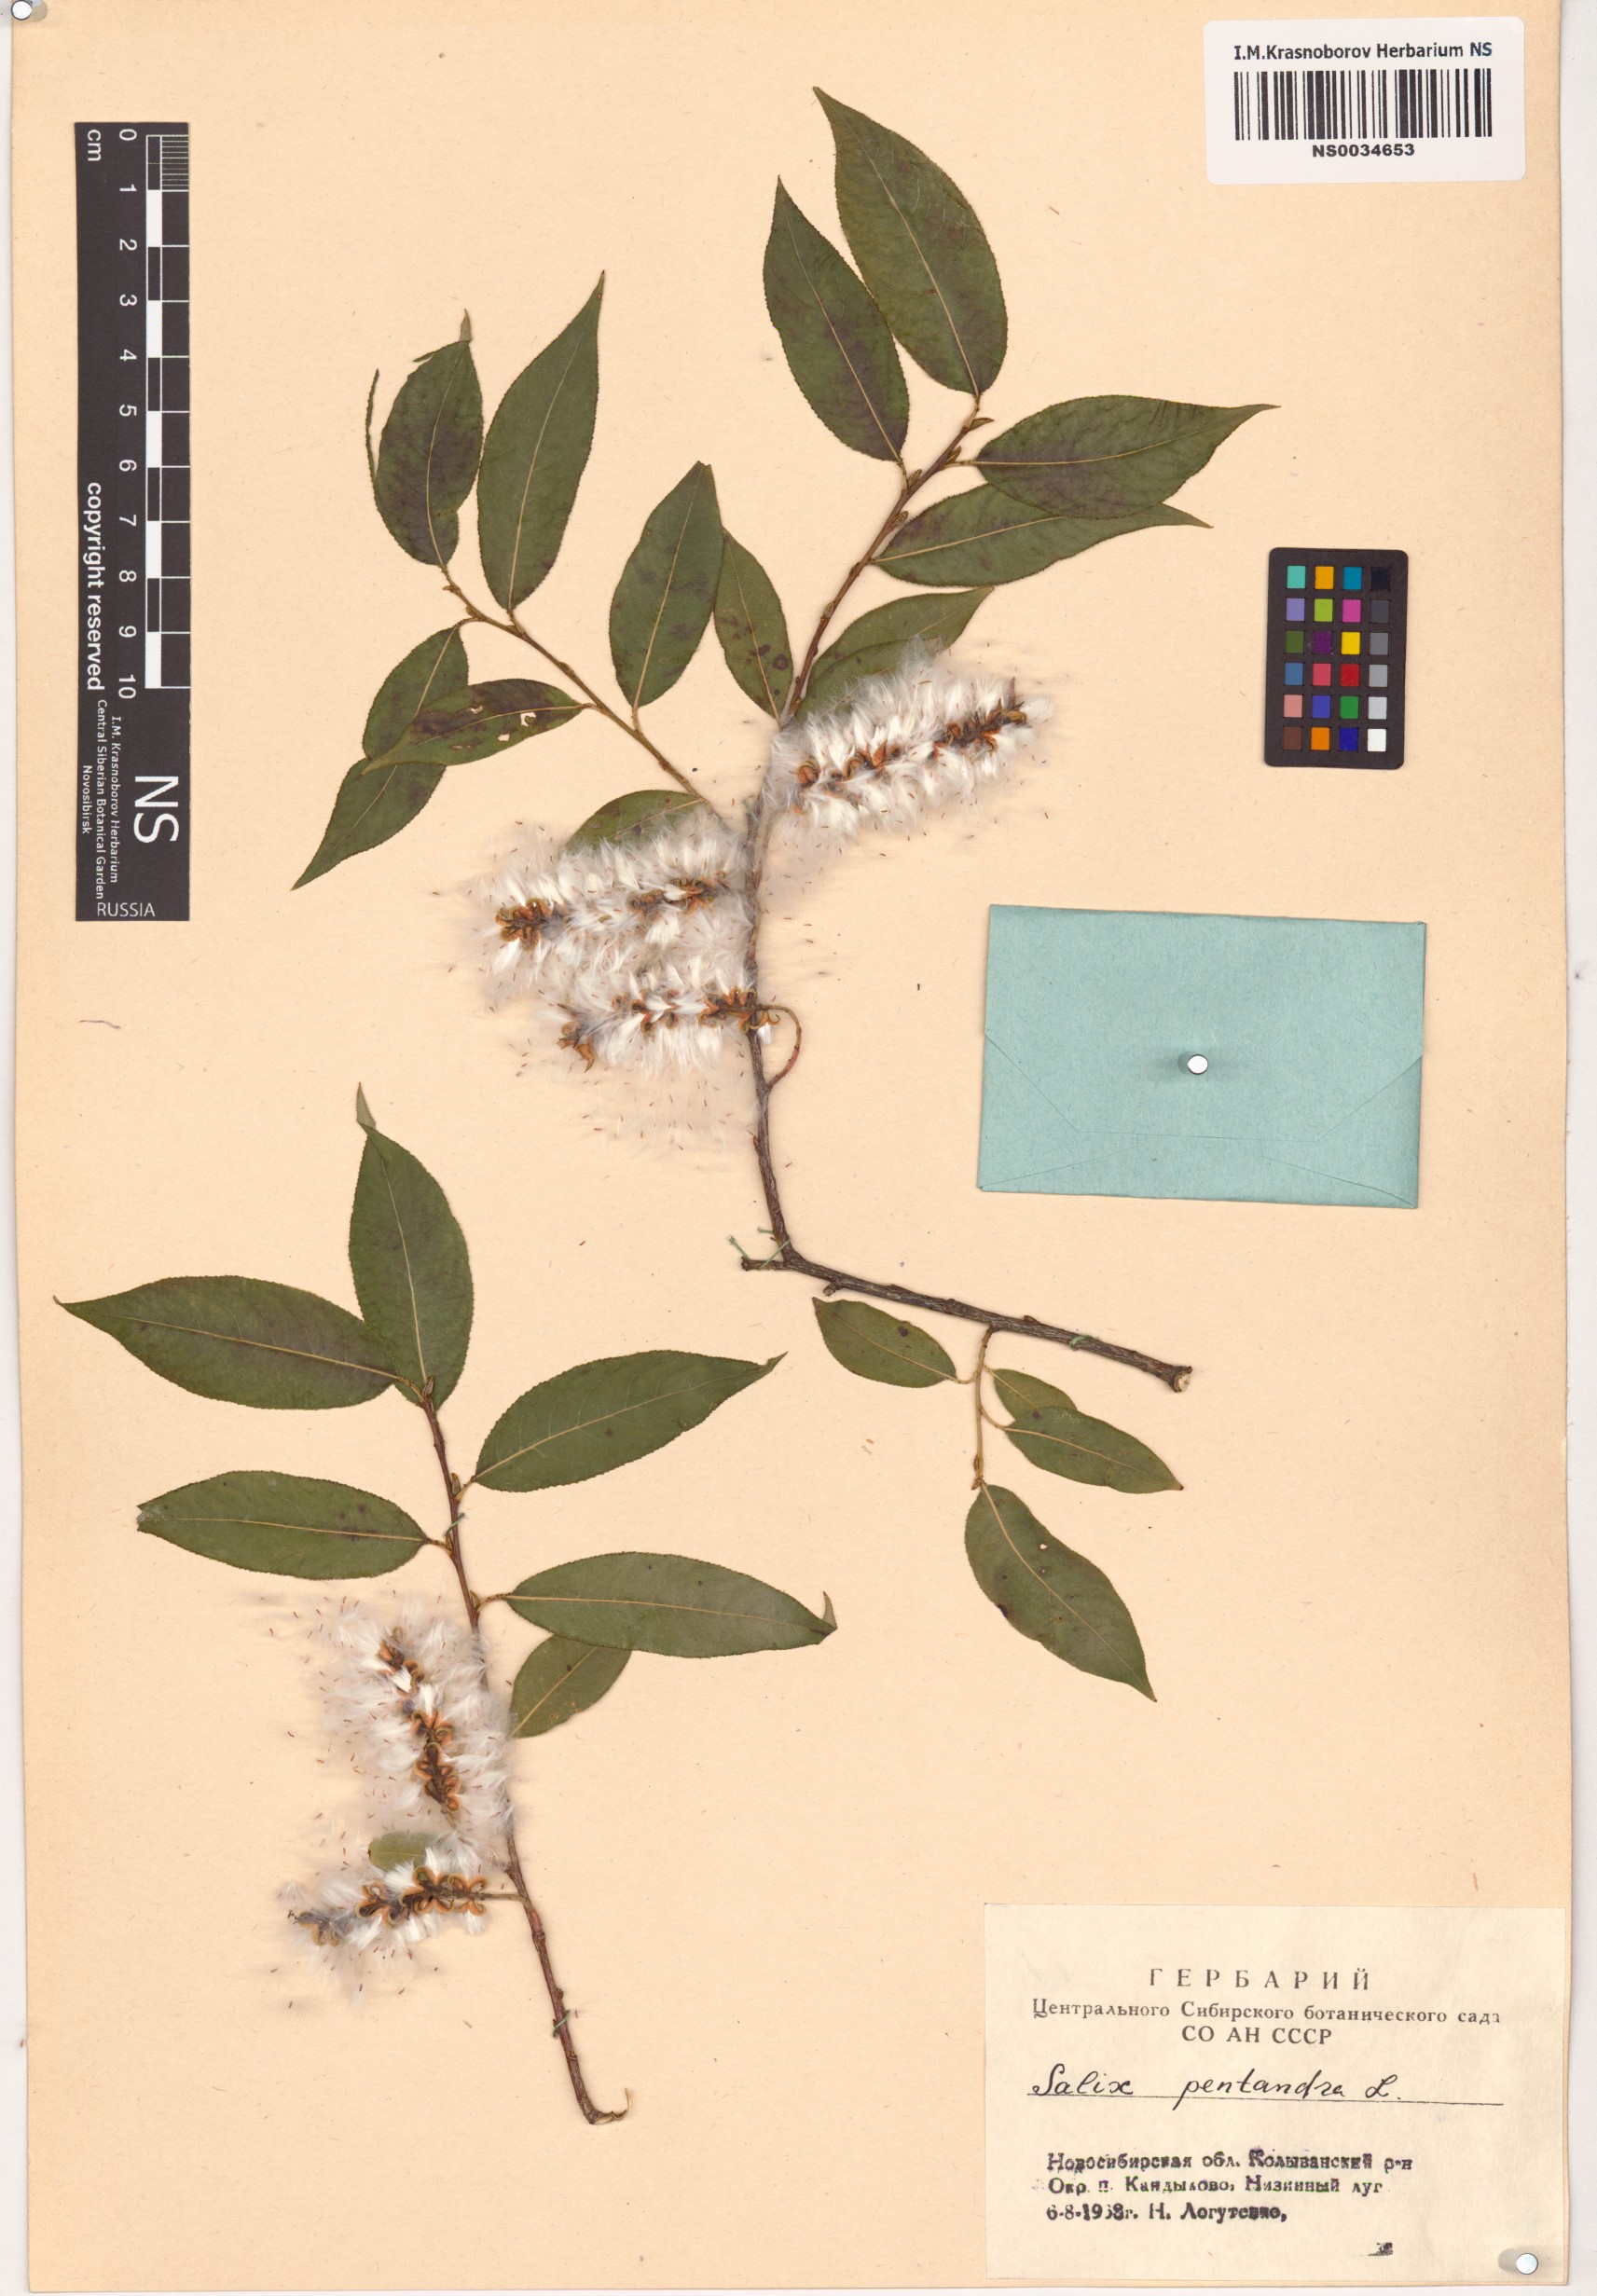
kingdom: Plantae
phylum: Tracheophyta
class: Magnoliopsida
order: Malpighiales
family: Salicaceae
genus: Salix
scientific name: Salix pentandra
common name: Bay willow
